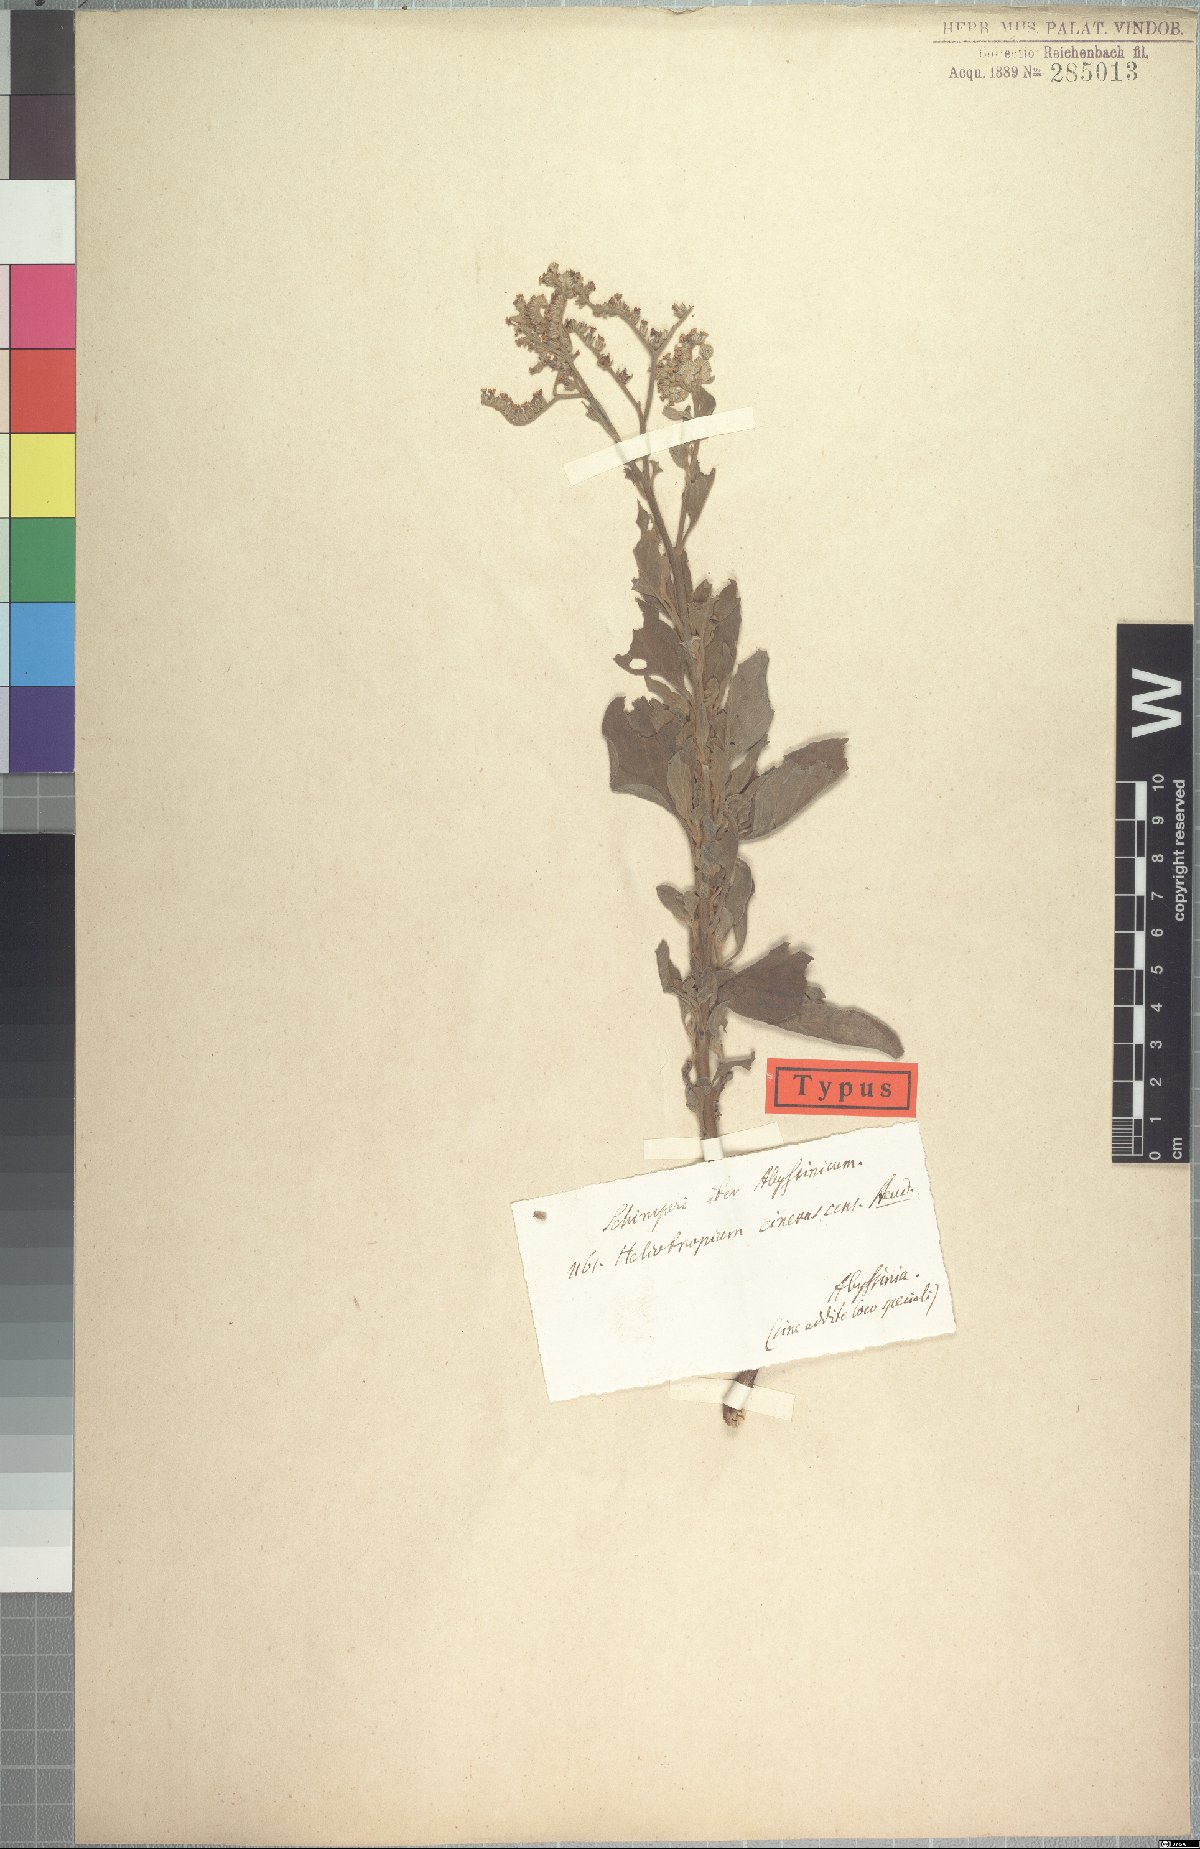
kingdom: Plantae
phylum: Tracheophyta
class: Magnoliopsida
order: Boraginales
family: Heliotropiaceae
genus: Heliotropium
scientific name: Heliotropium aegyptiacum
